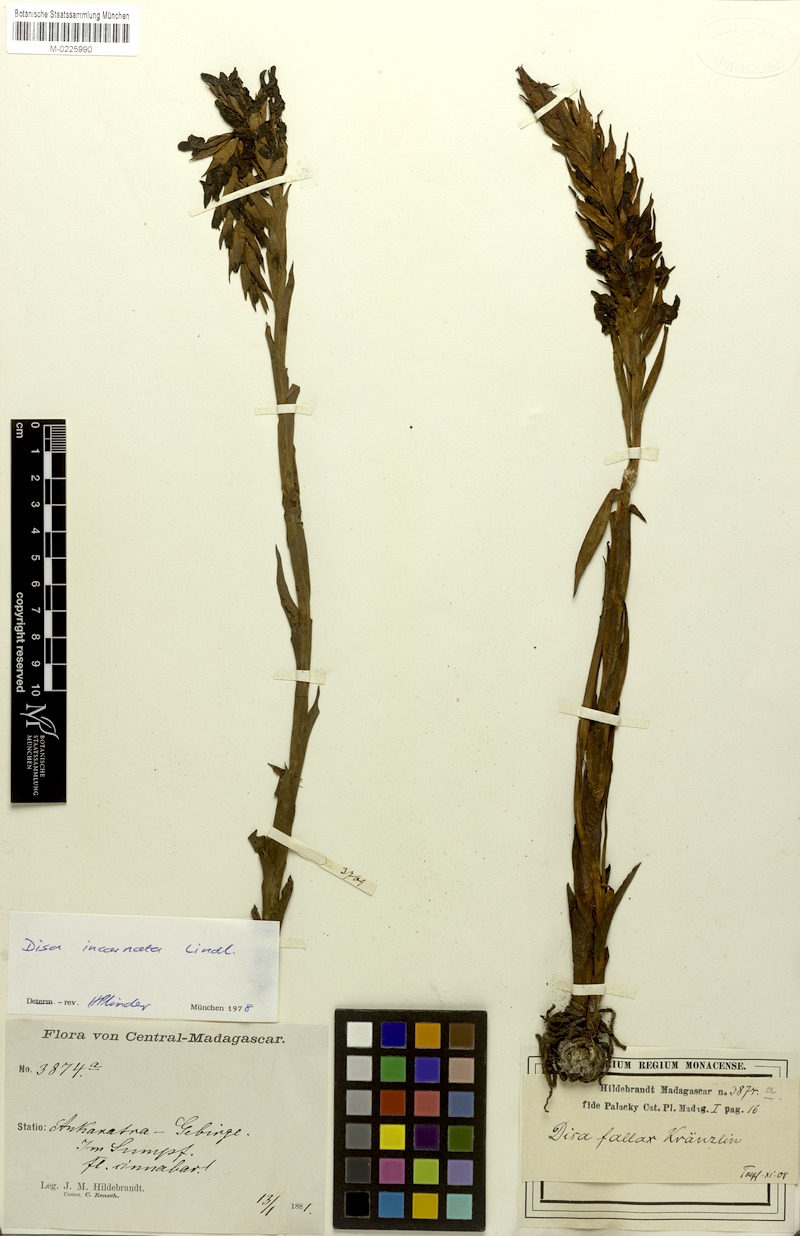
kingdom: Plantae
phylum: Tracheophyta
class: Liliopsida
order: Asparagales
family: Orchidaceae
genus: Disa
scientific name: Disa incarnata
